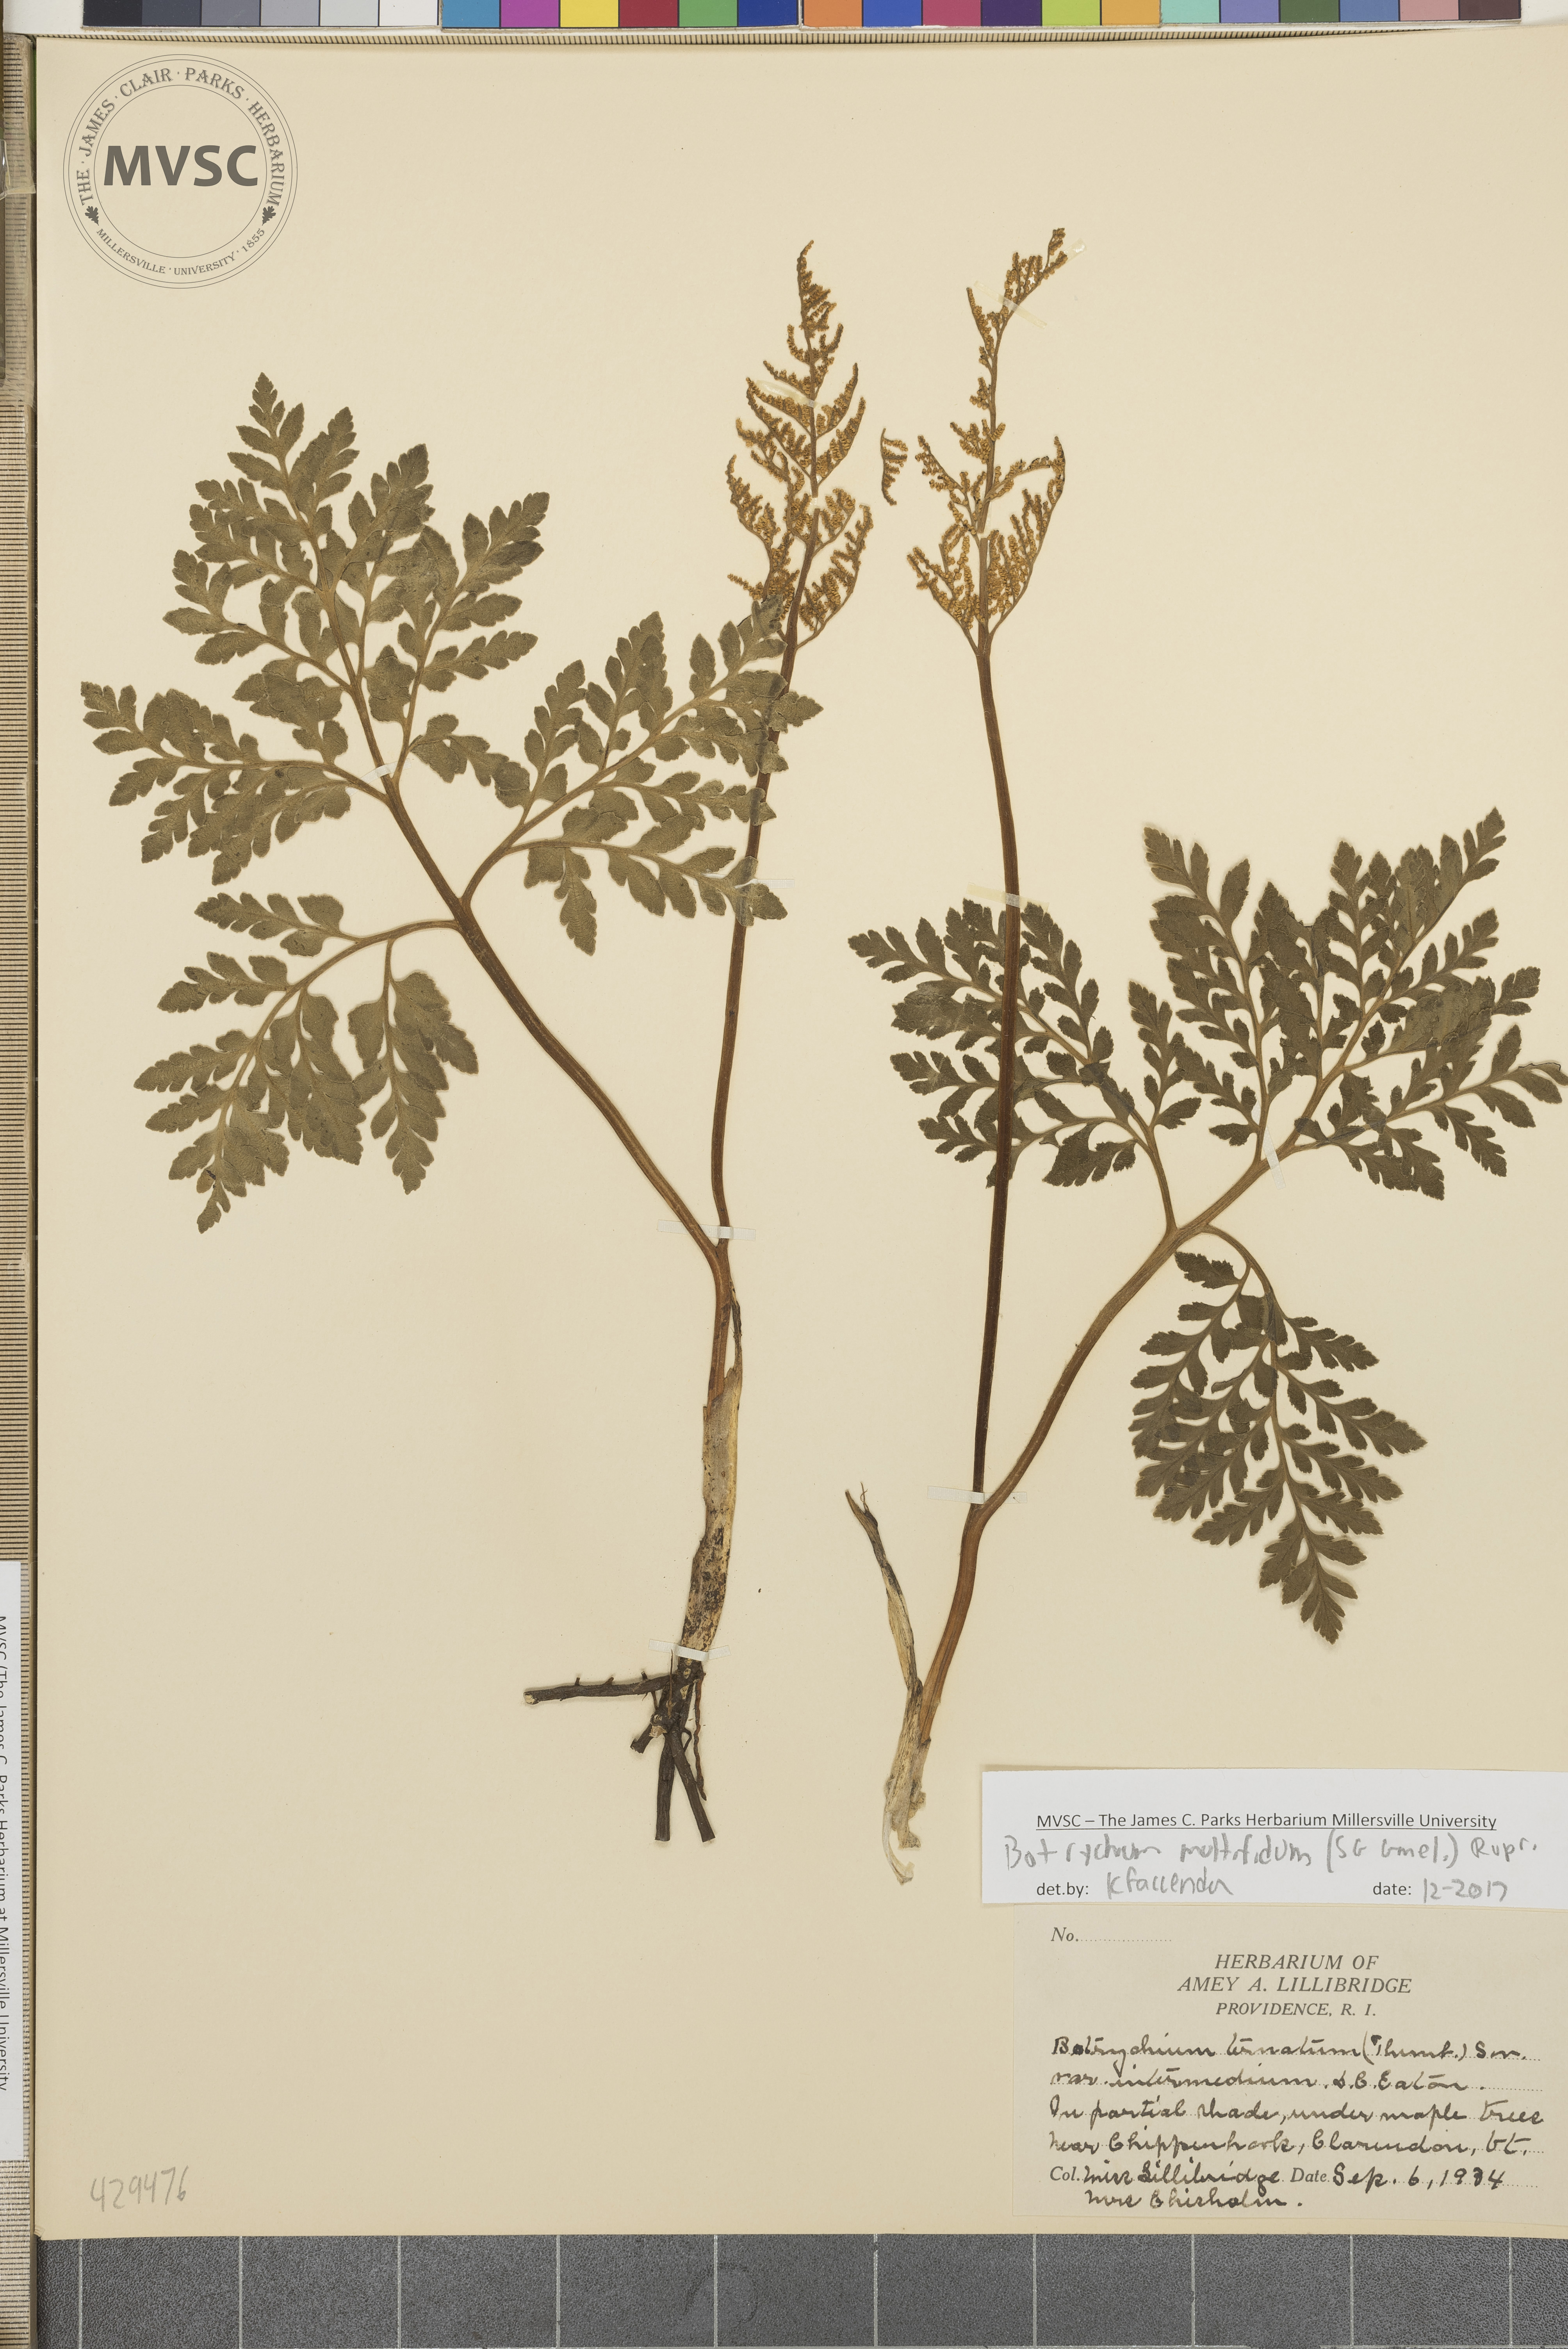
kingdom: Plantae
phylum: Tracheophyta
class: Polypodiopsida
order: Ophioglossales
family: Ophioglossaceae
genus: Sceptridium
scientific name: Sceptridium multifidum
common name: Leathery grape fern
